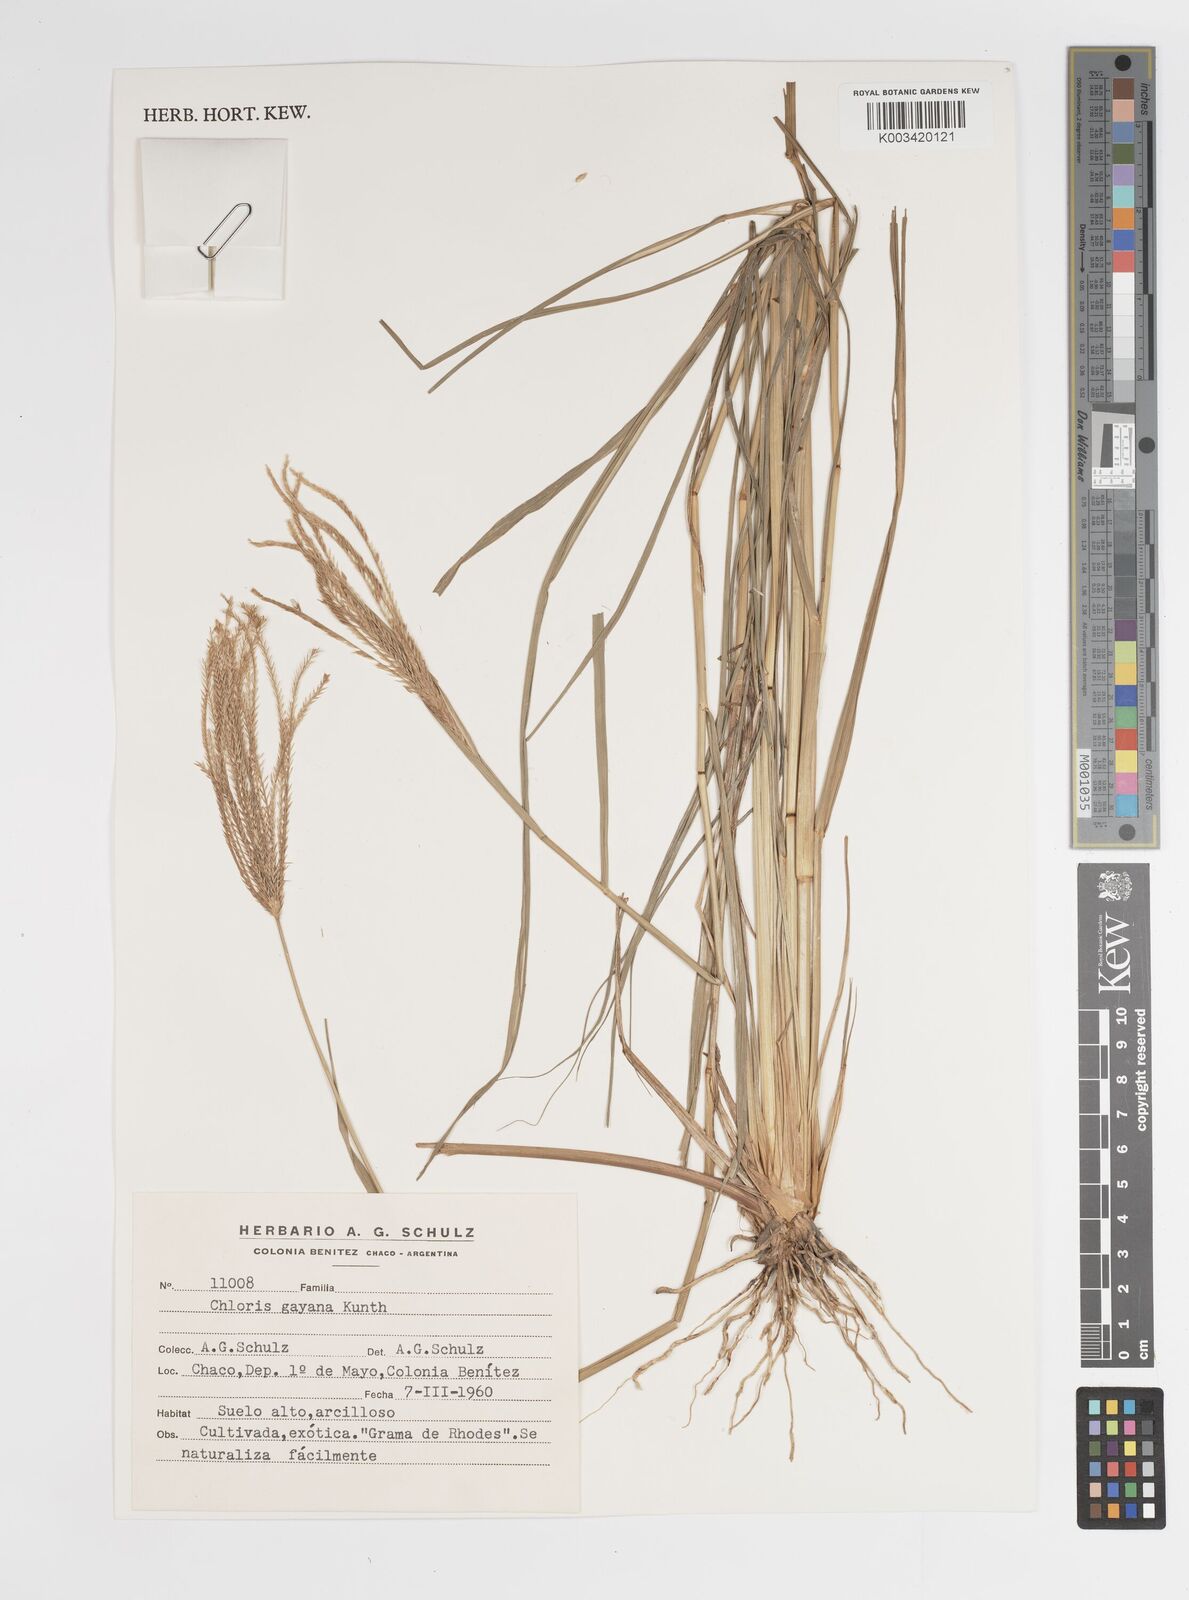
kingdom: Plantae
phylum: Tracheophyta
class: Liliopsida
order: Poales
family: Poaceae
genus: Chloris
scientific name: Chloris gayana
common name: Rhodes grass
